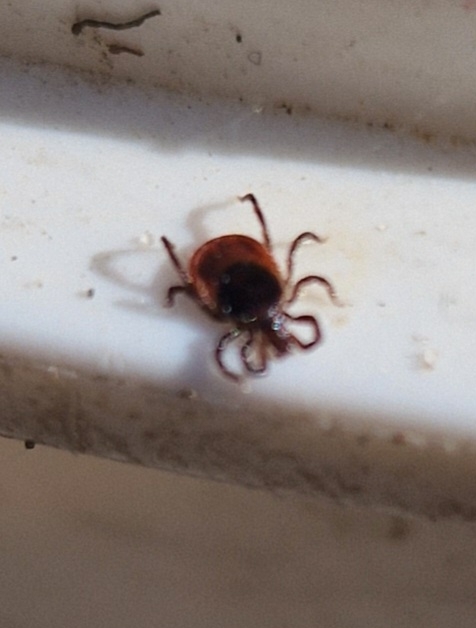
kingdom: Animalia
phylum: Arthropoda
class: Arachnida
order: Ixodida
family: Ixodidae
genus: Ixodes
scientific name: Ixodes ricinus
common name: Skovflåt
